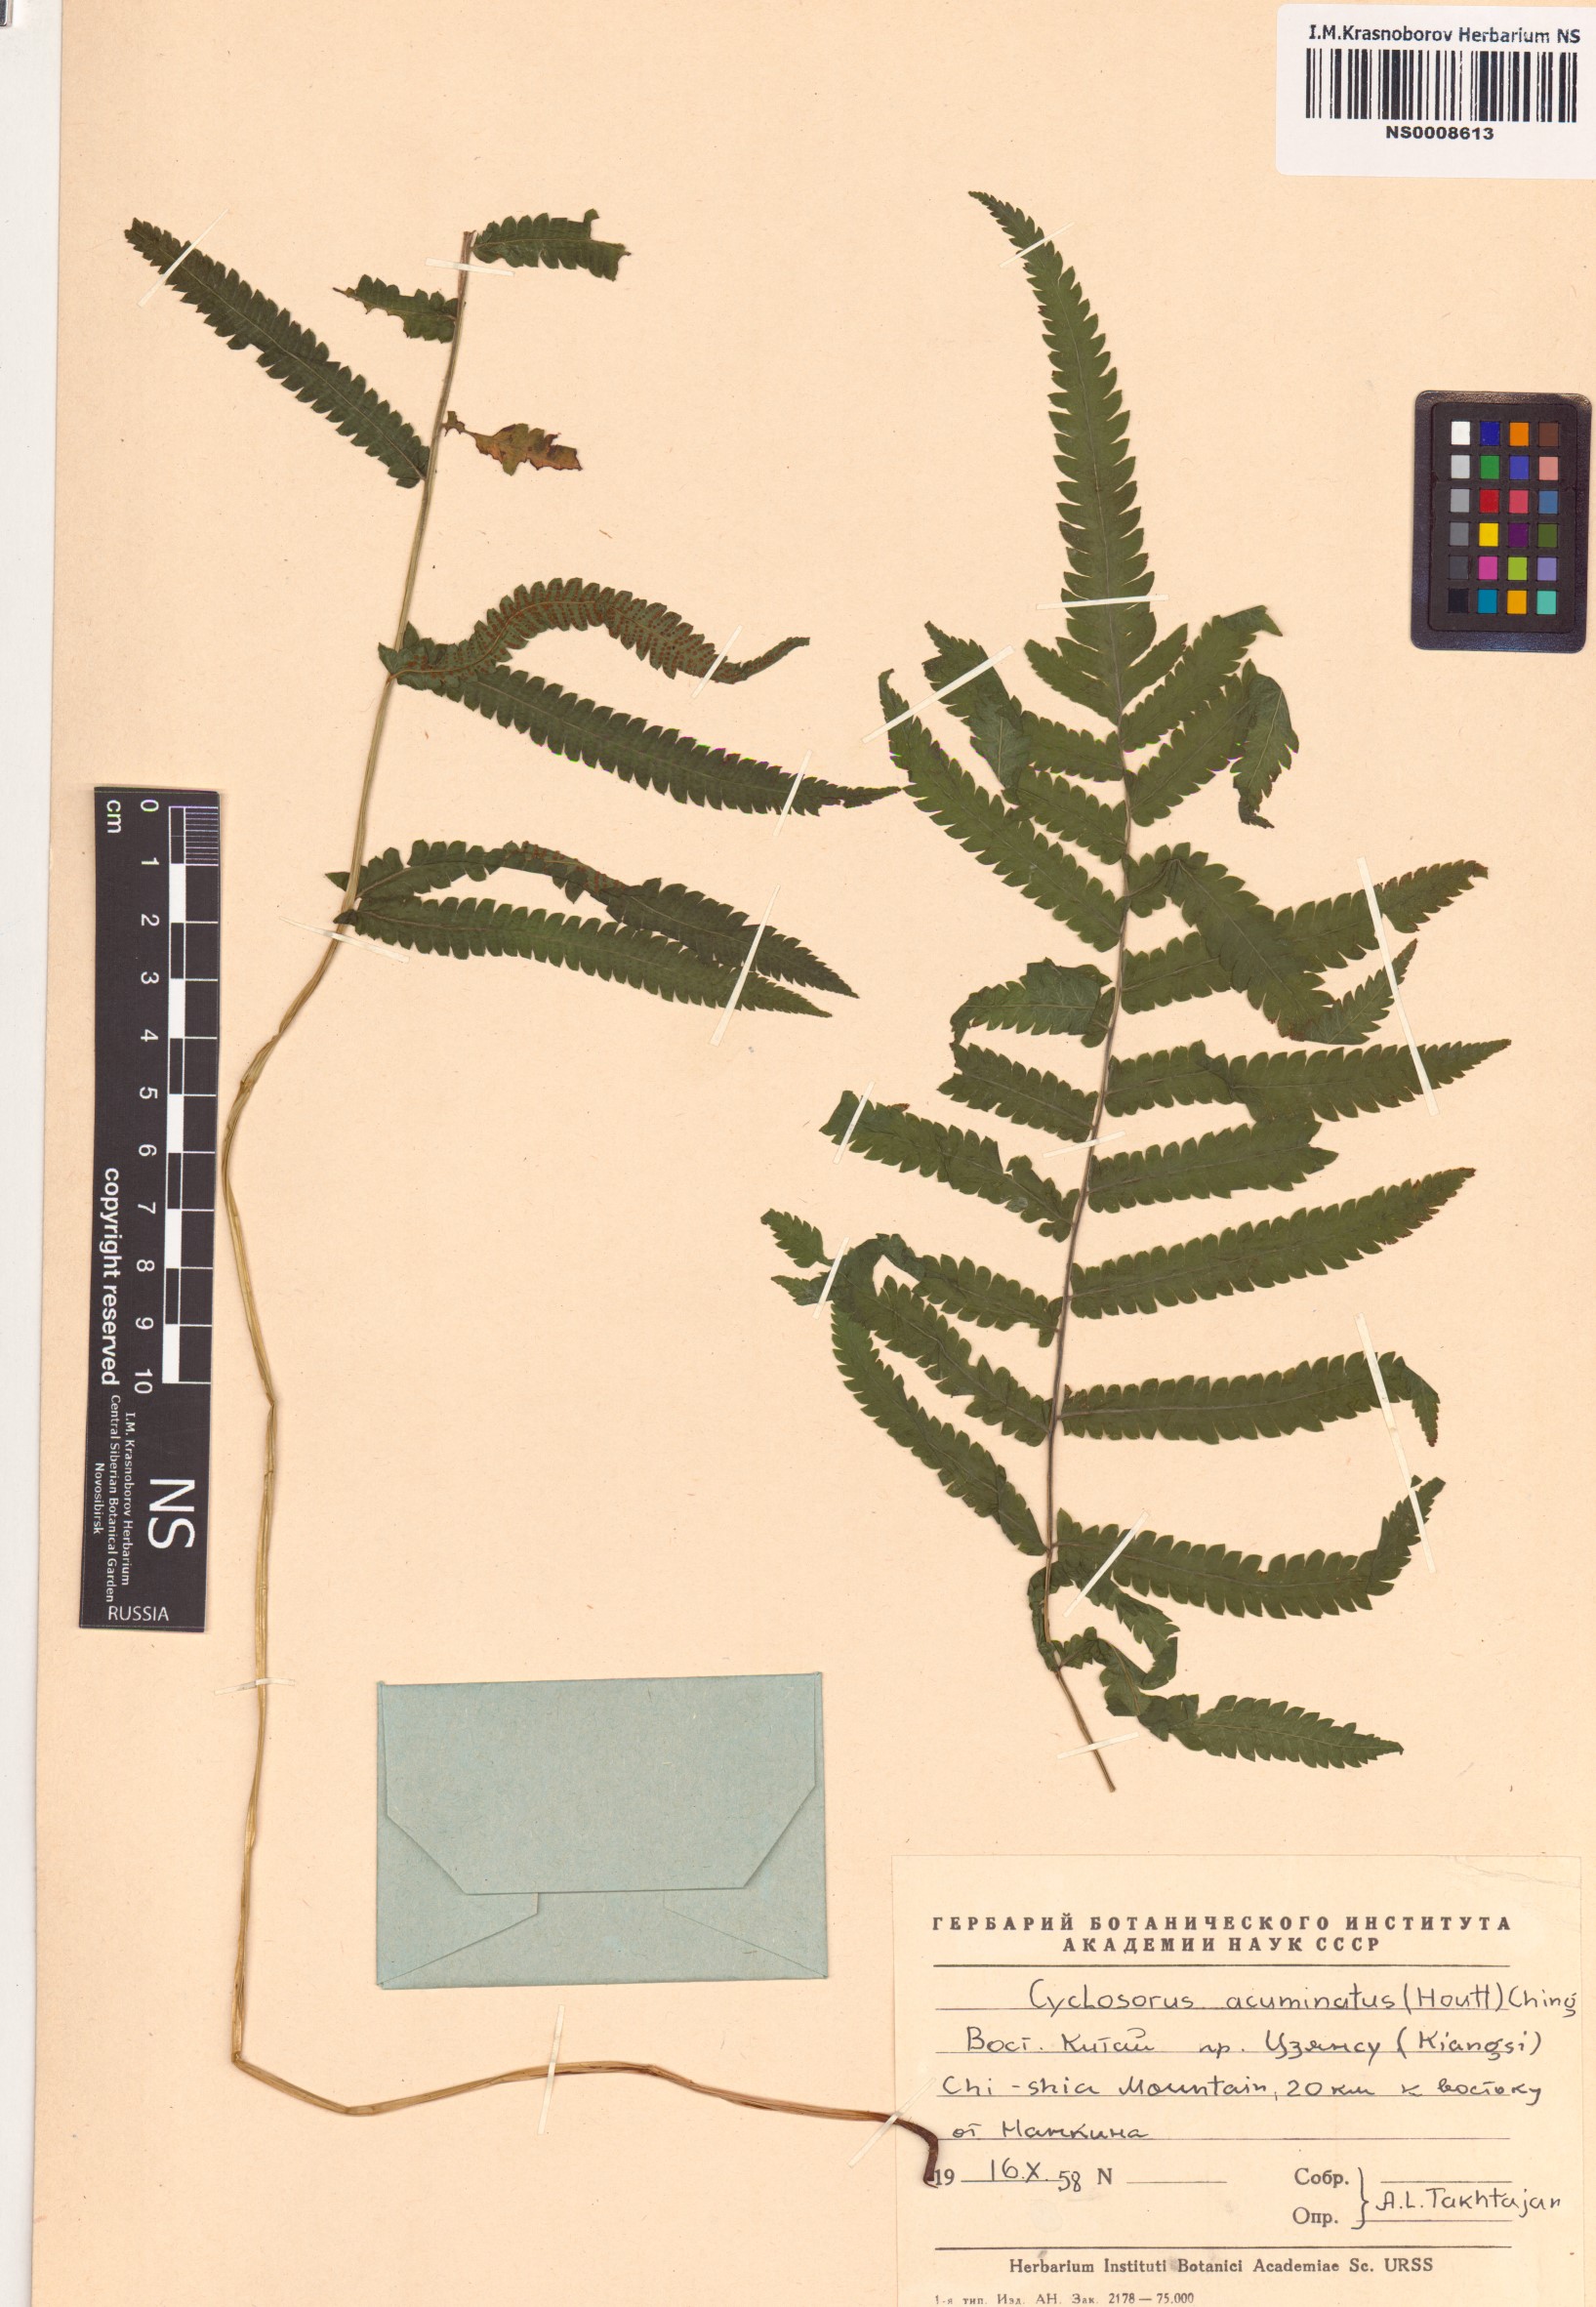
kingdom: Plantae
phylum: Tracheophyta
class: Polypodiopsida
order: Polypodiales
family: Thelypteridaceae
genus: Christella
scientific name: Christella acuminata
